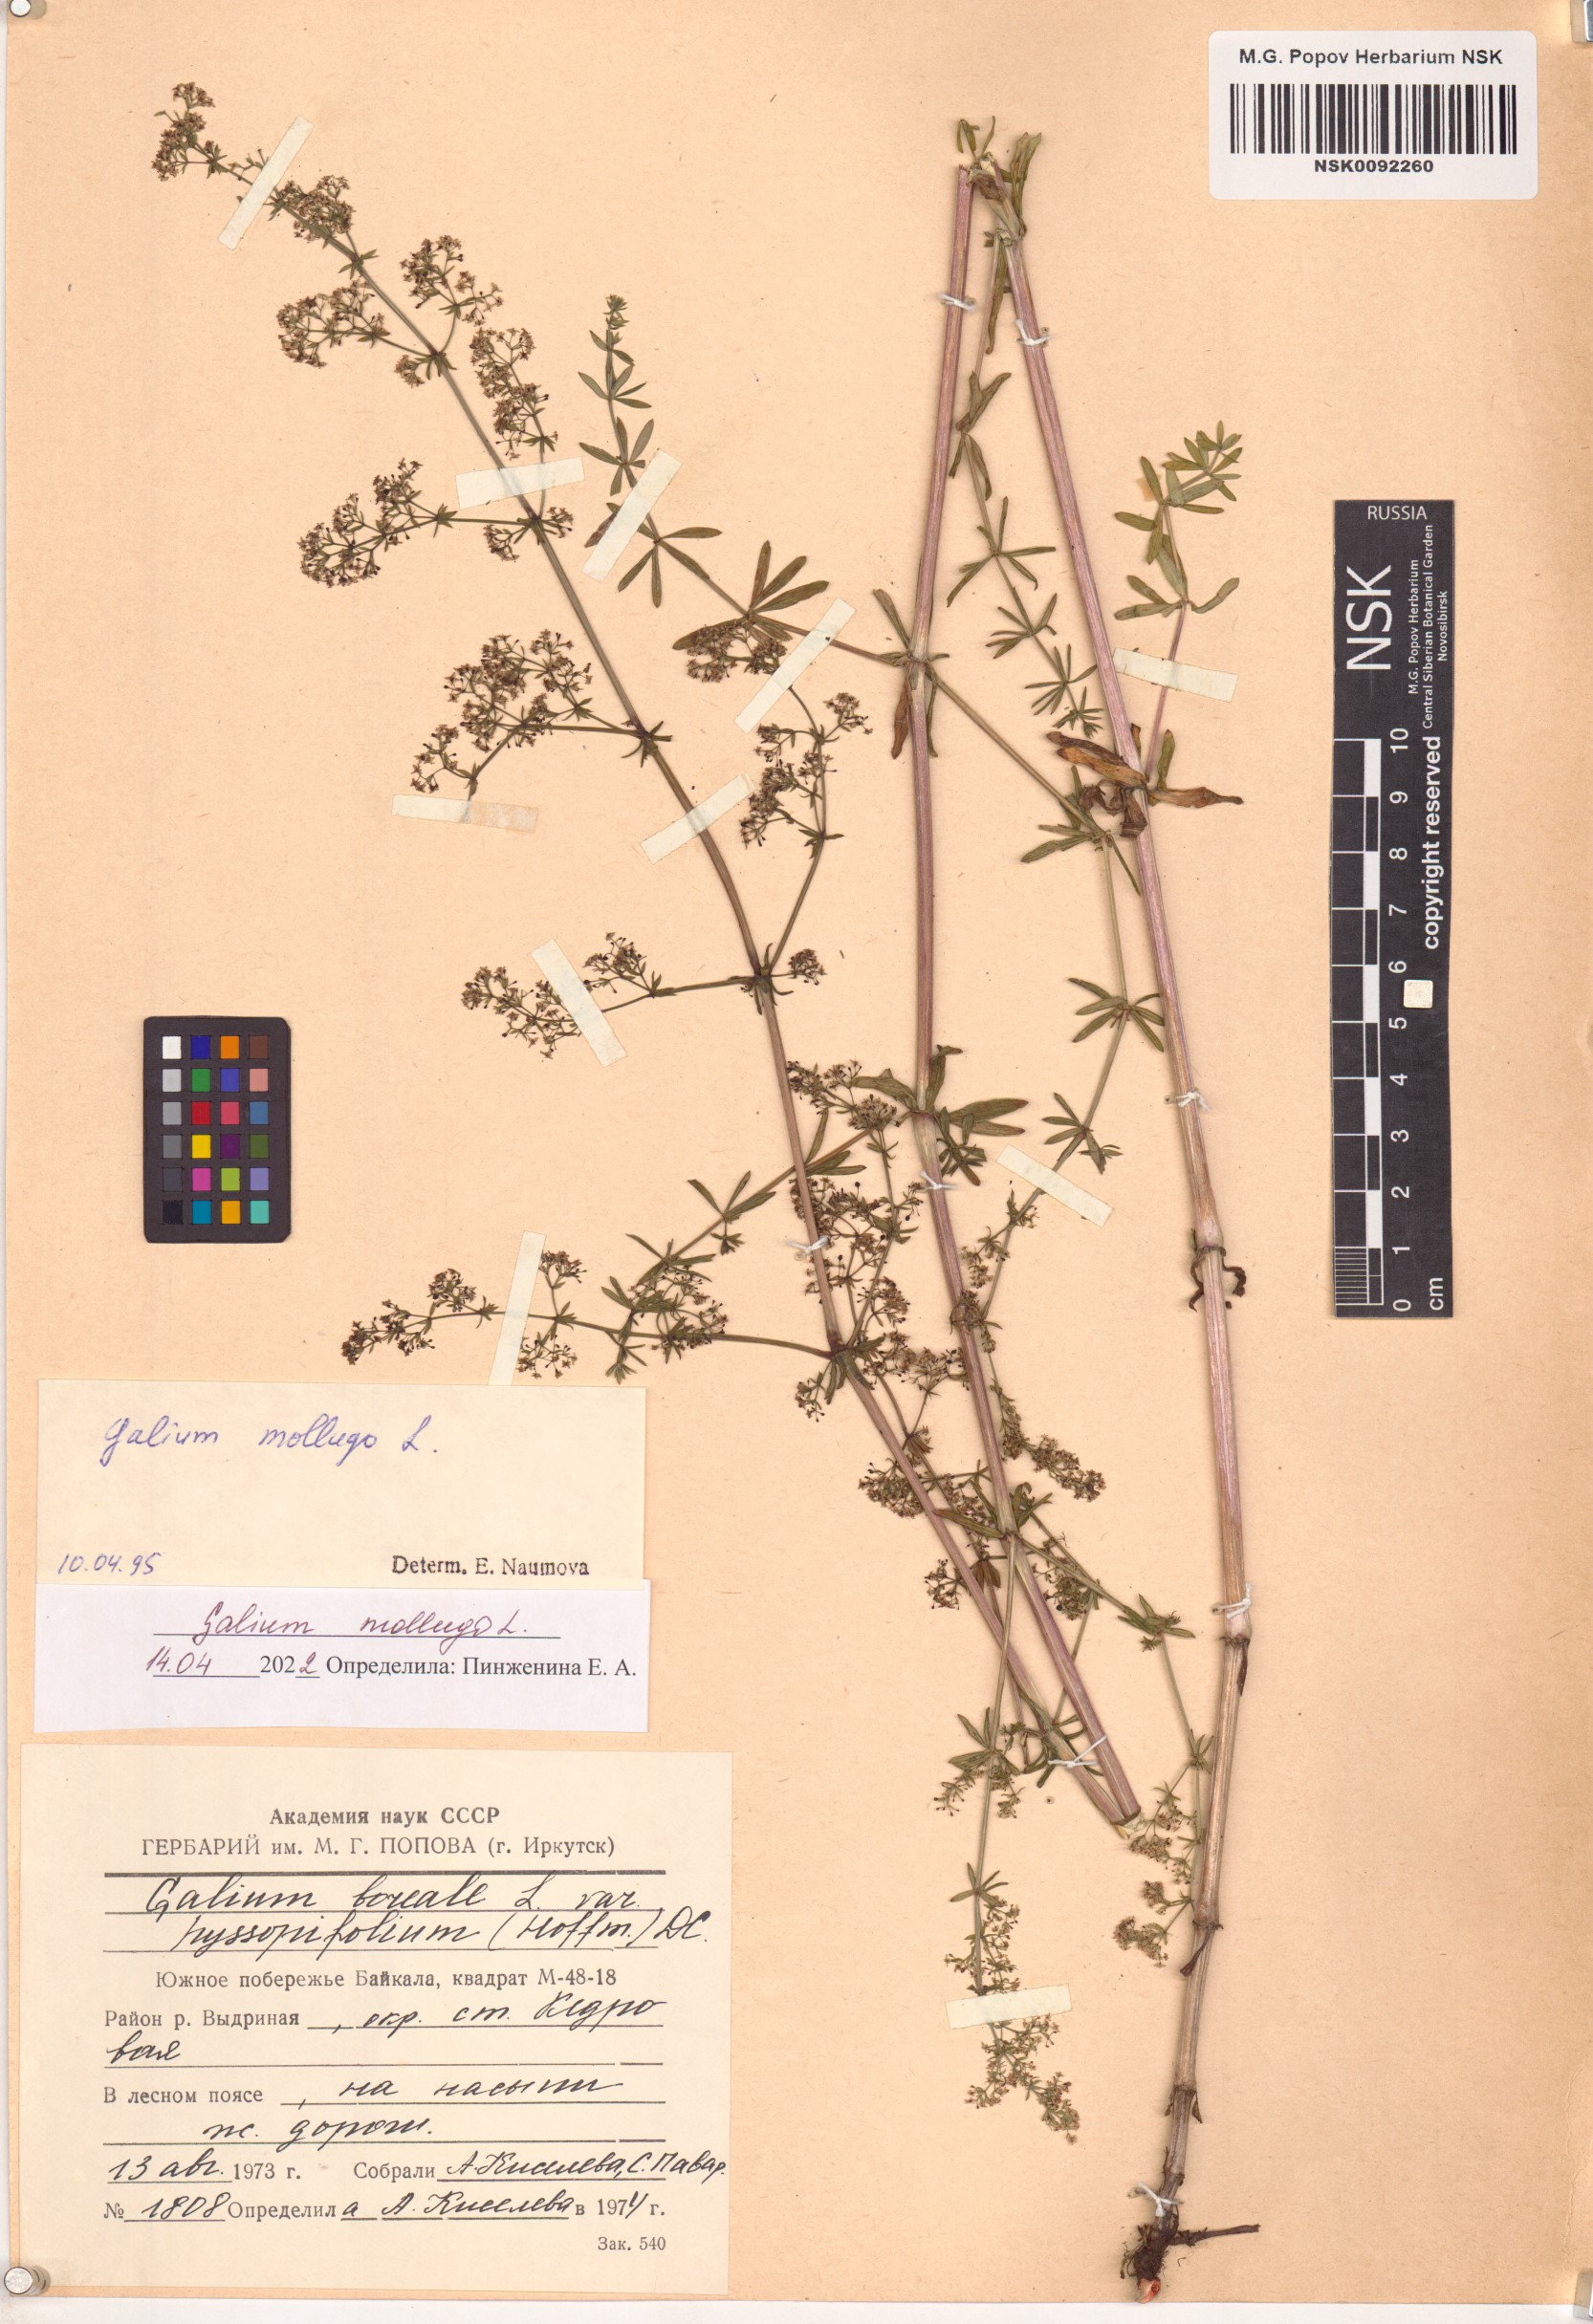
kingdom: Plantae
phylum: Tracheophyta
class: Magnoliopsida
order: Gentianales
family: Rubiaceae
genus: Galium
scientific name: Galium mollugo
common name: Hedge bedstraw
